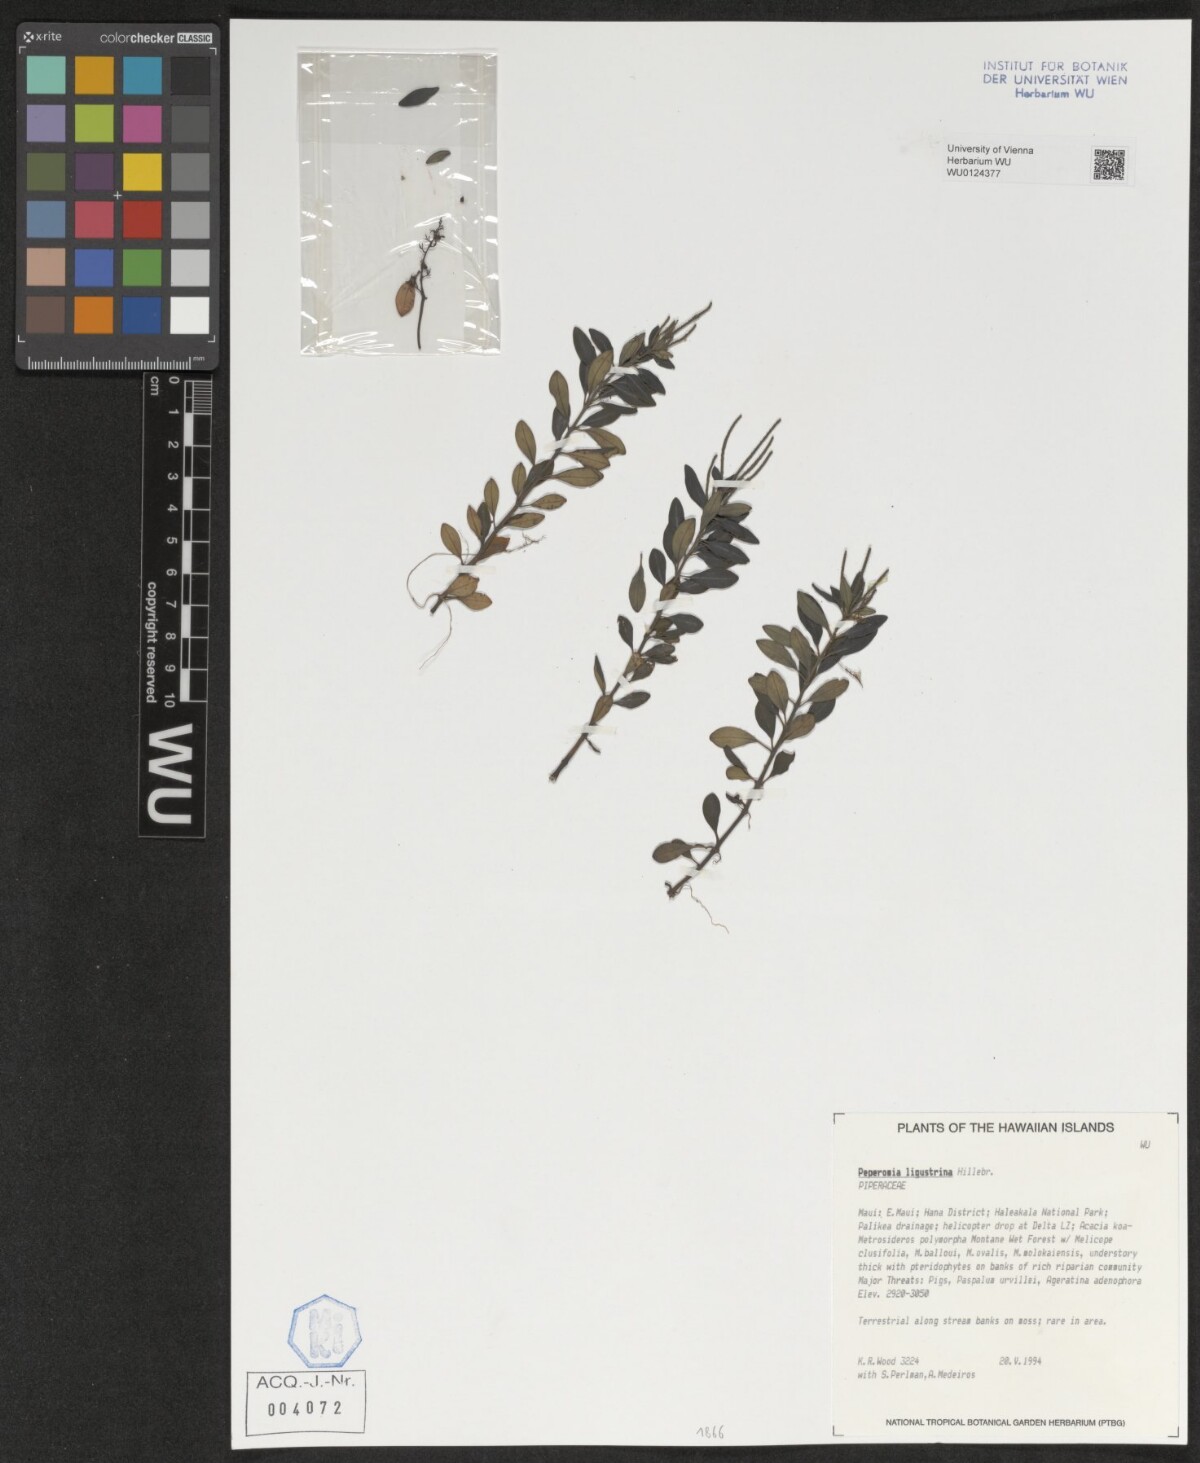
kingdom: Plantae
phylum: Tracheophyta
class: Magnoliopsida
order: Piperales
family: Piperaceae
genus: Peperomia
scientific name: Peperomia ligustrina
